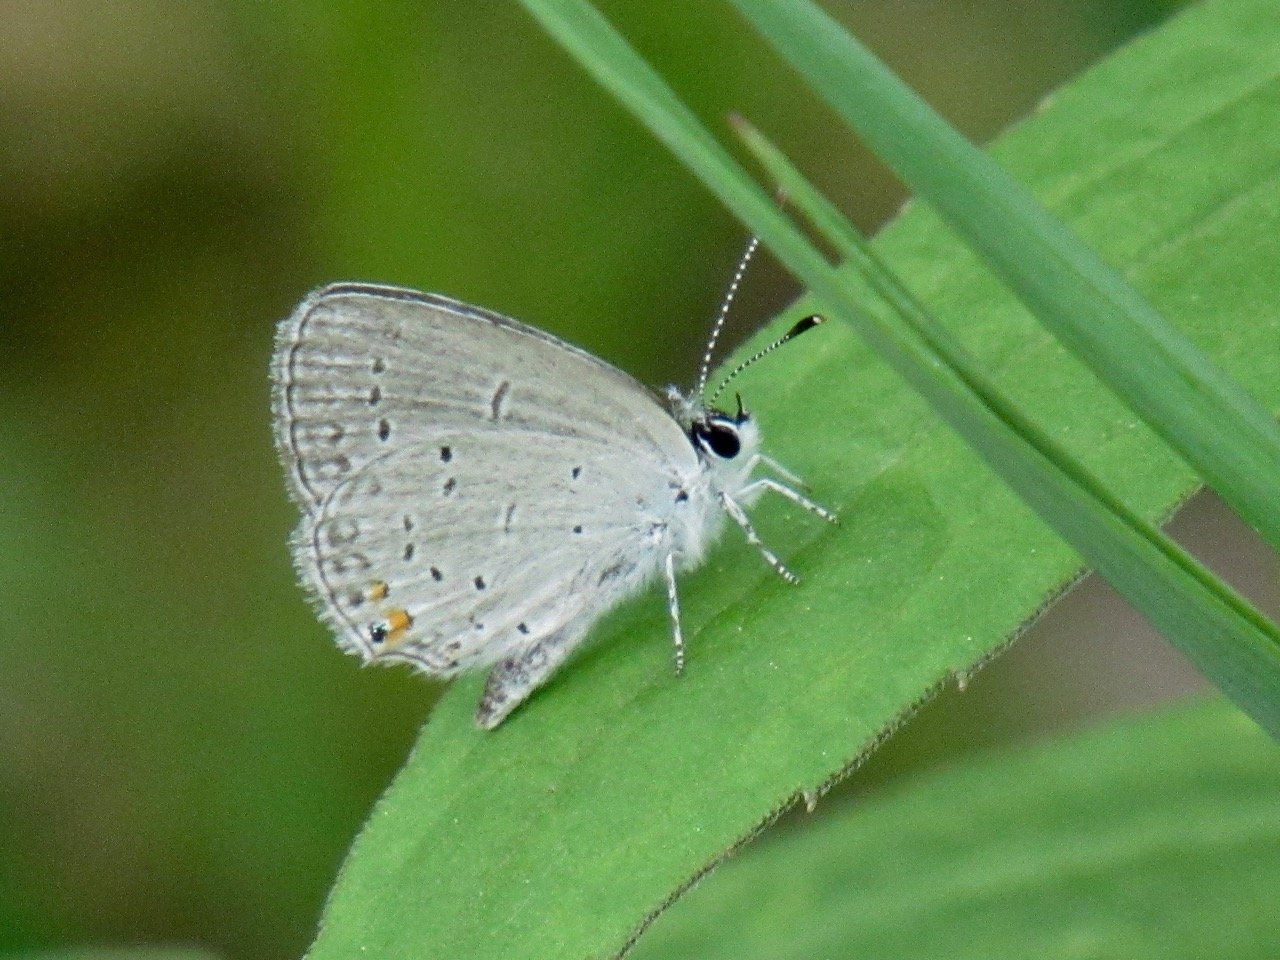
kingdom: Animalia
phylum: Arthropoda
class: Insecta
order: Lepidoptera
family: Lycaenidae
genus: Elkalyce
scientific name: Elkalyce comyntas
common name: Eastern Tailed-Blue
